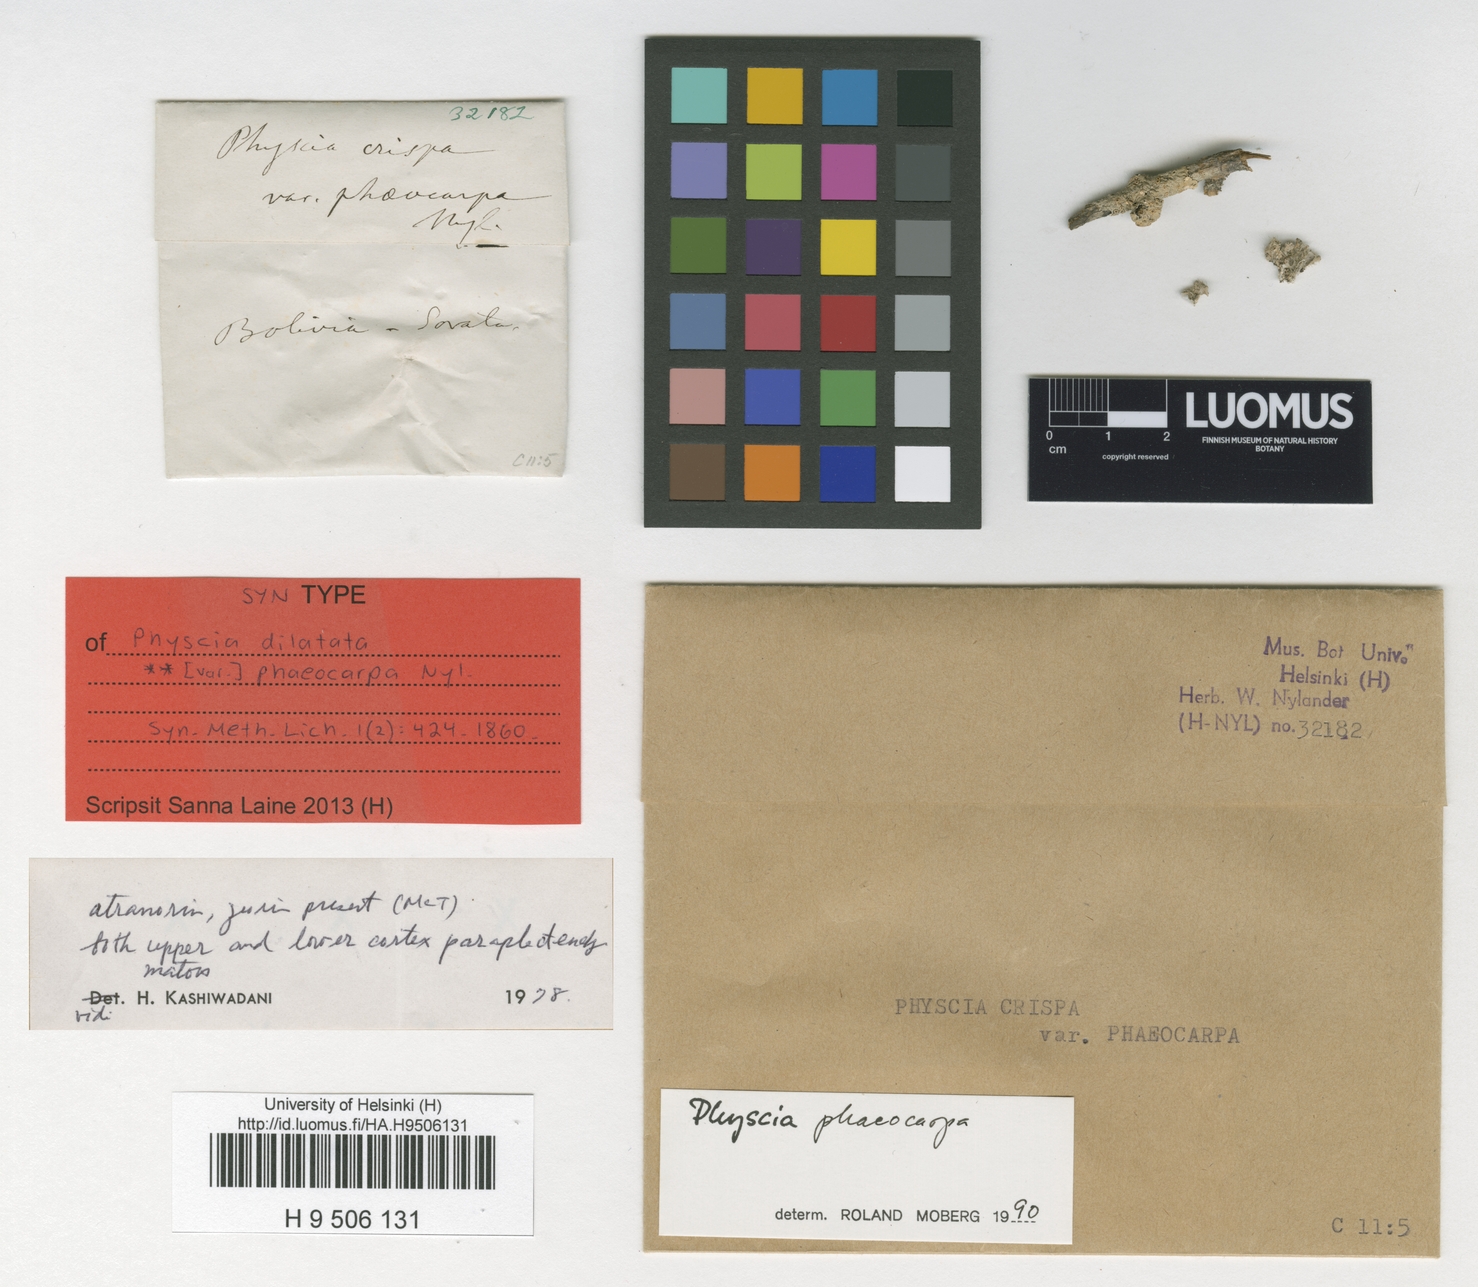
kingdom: Fungi
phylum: Ascomycota
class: Lecanoromycetes
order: Caliciales
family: Physciaceae
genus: Physcia
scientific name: Physcia phaeocarpa
